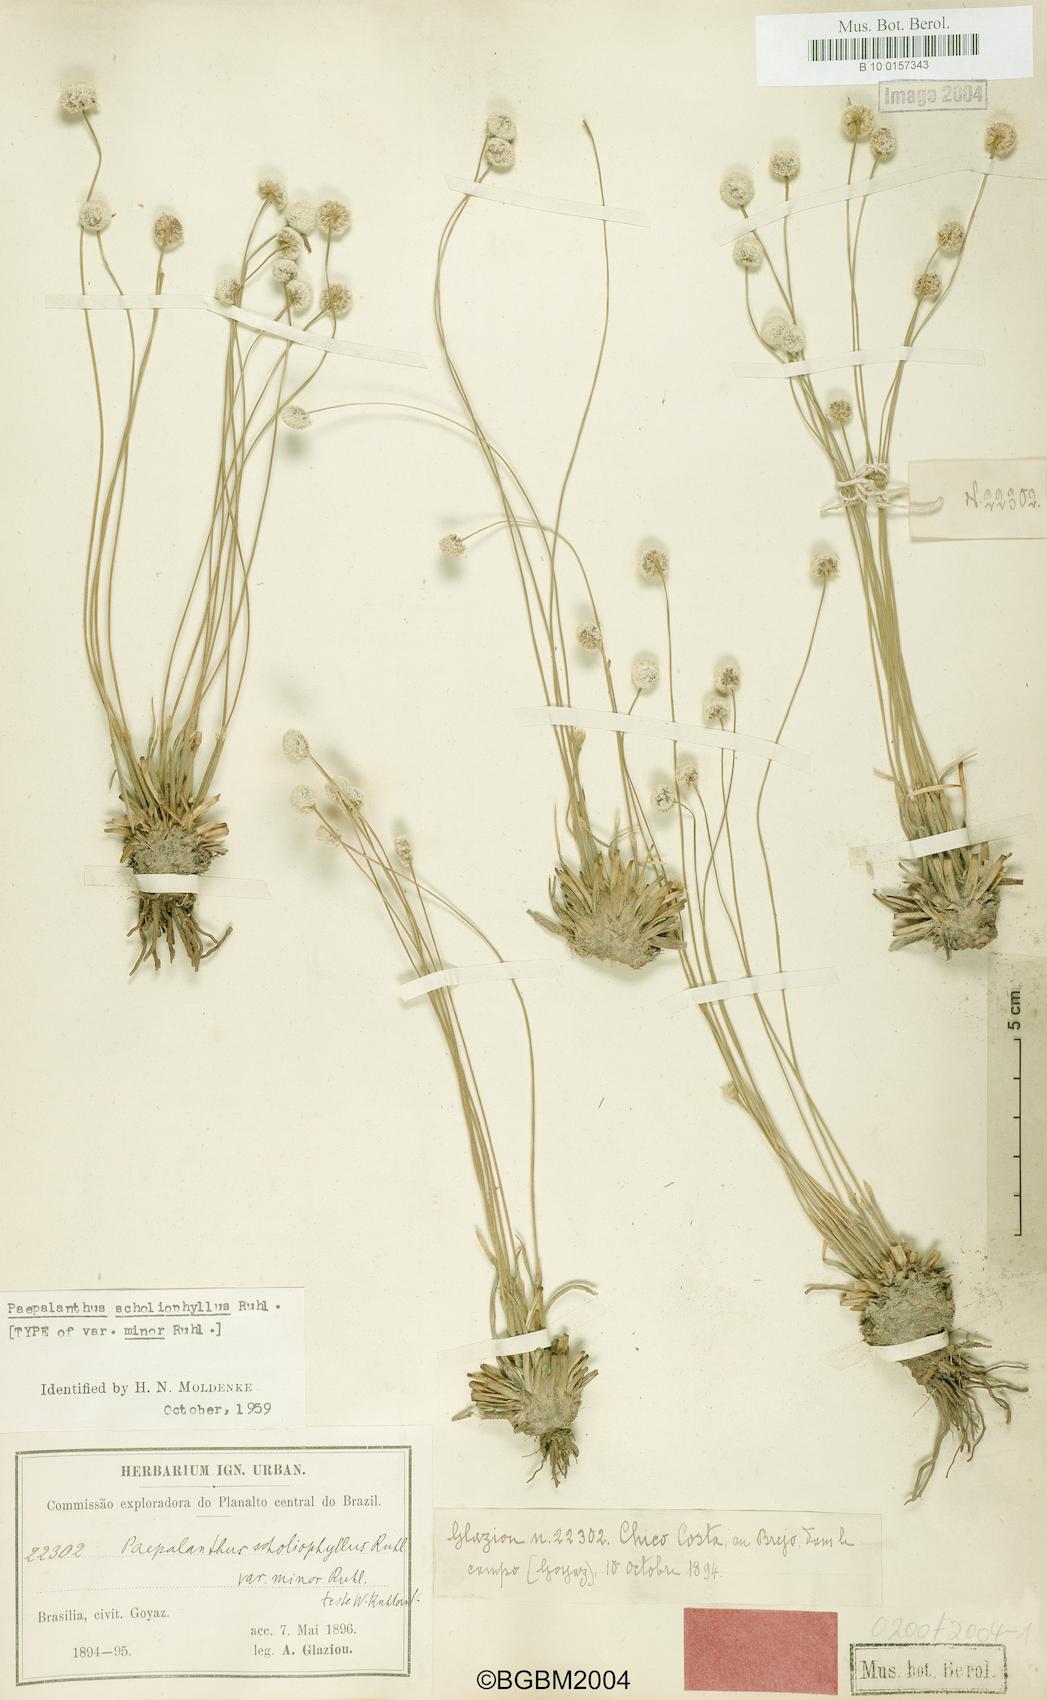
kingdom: Plantae
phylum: Tracheophyta
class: Liliopsida
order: Poales
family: Eriocaulaceae
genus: Paepalanthus
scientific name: Paepalanthus scholiophyllus
